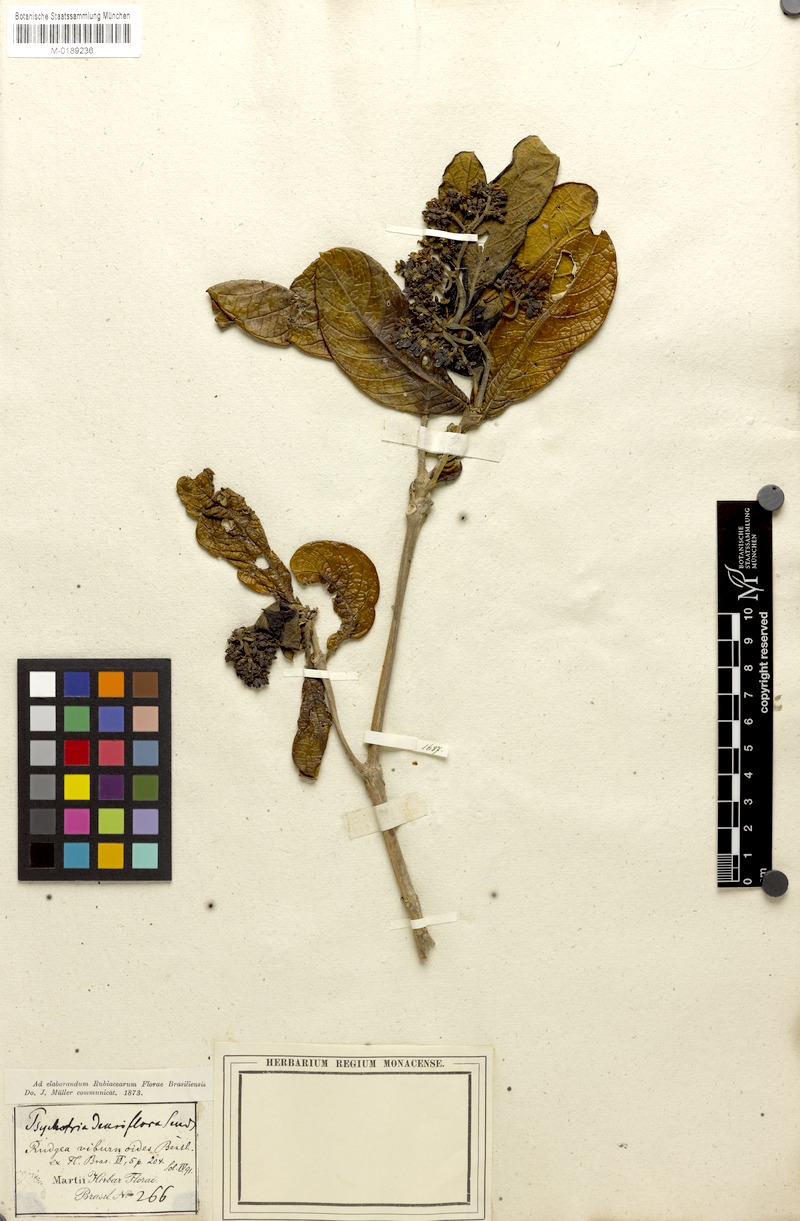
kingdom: Plantae
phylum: Tracheophyta
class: Magnoliopsida
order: Gentianales
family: Rubiaceae
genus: Rudgea
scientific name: Rudgea viburnoides
